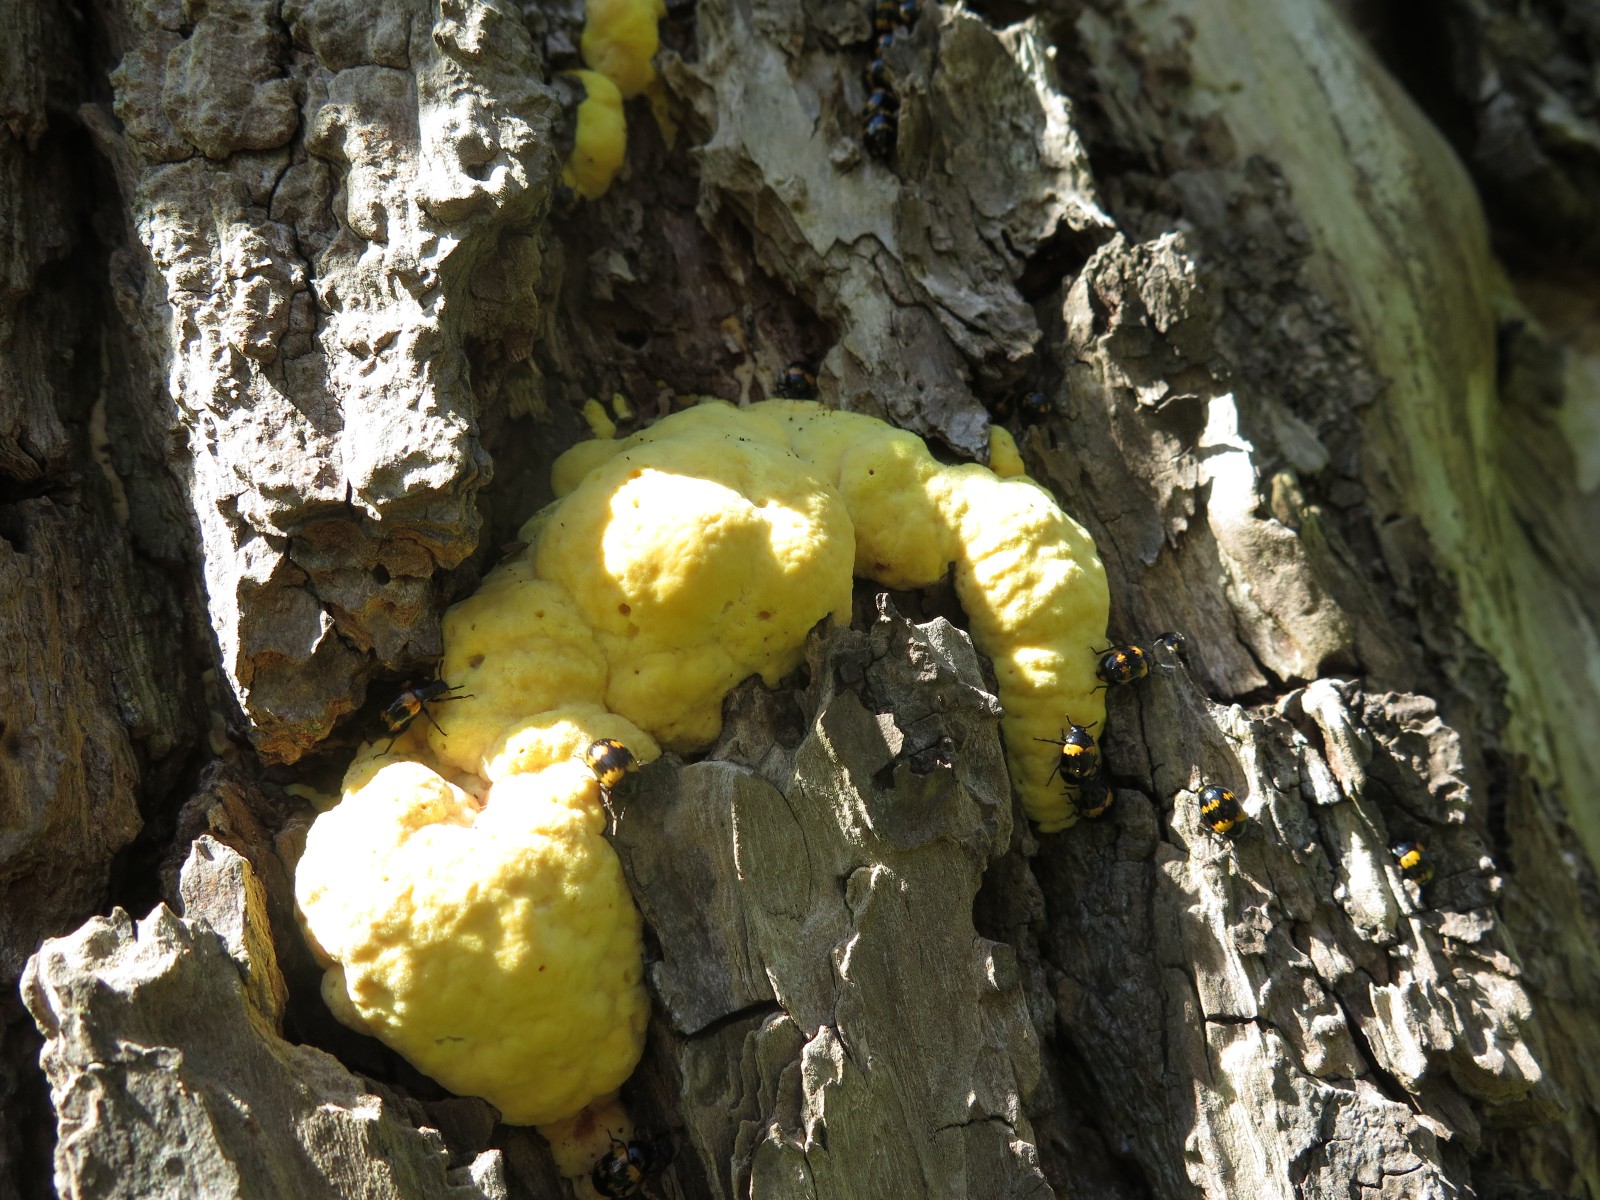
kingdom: Fungi
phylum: Basidiomycota
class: Agaricomycetes
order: Polyporales
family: Laetiporaceae
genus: Laetiporus
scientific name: Laetiporus sulphureus
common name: svovlporesvamp
